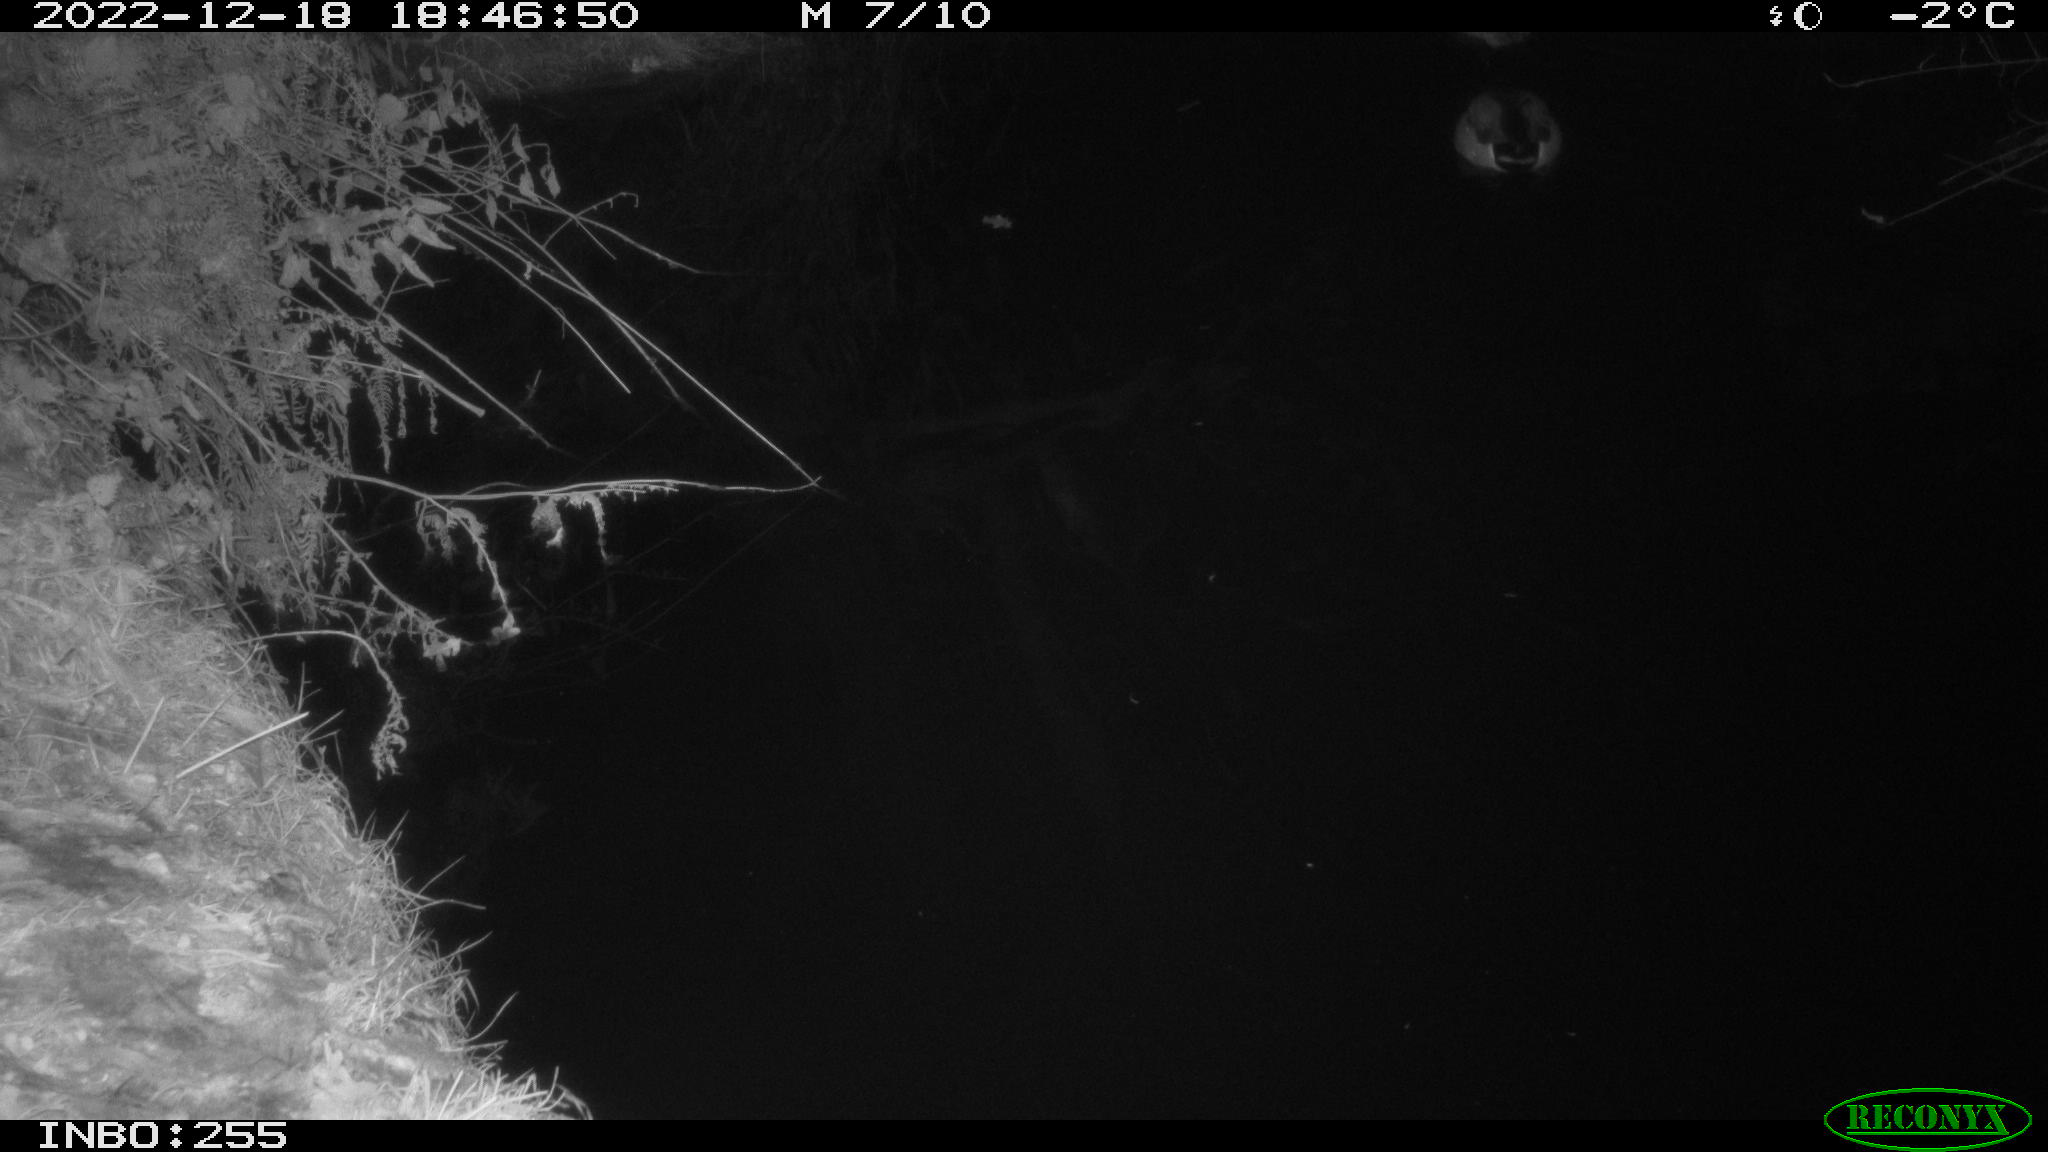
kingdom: Animalia
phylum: Chordata
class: Aves
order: Anseriformes
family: Anatidae
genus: Anas
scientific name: Anas
